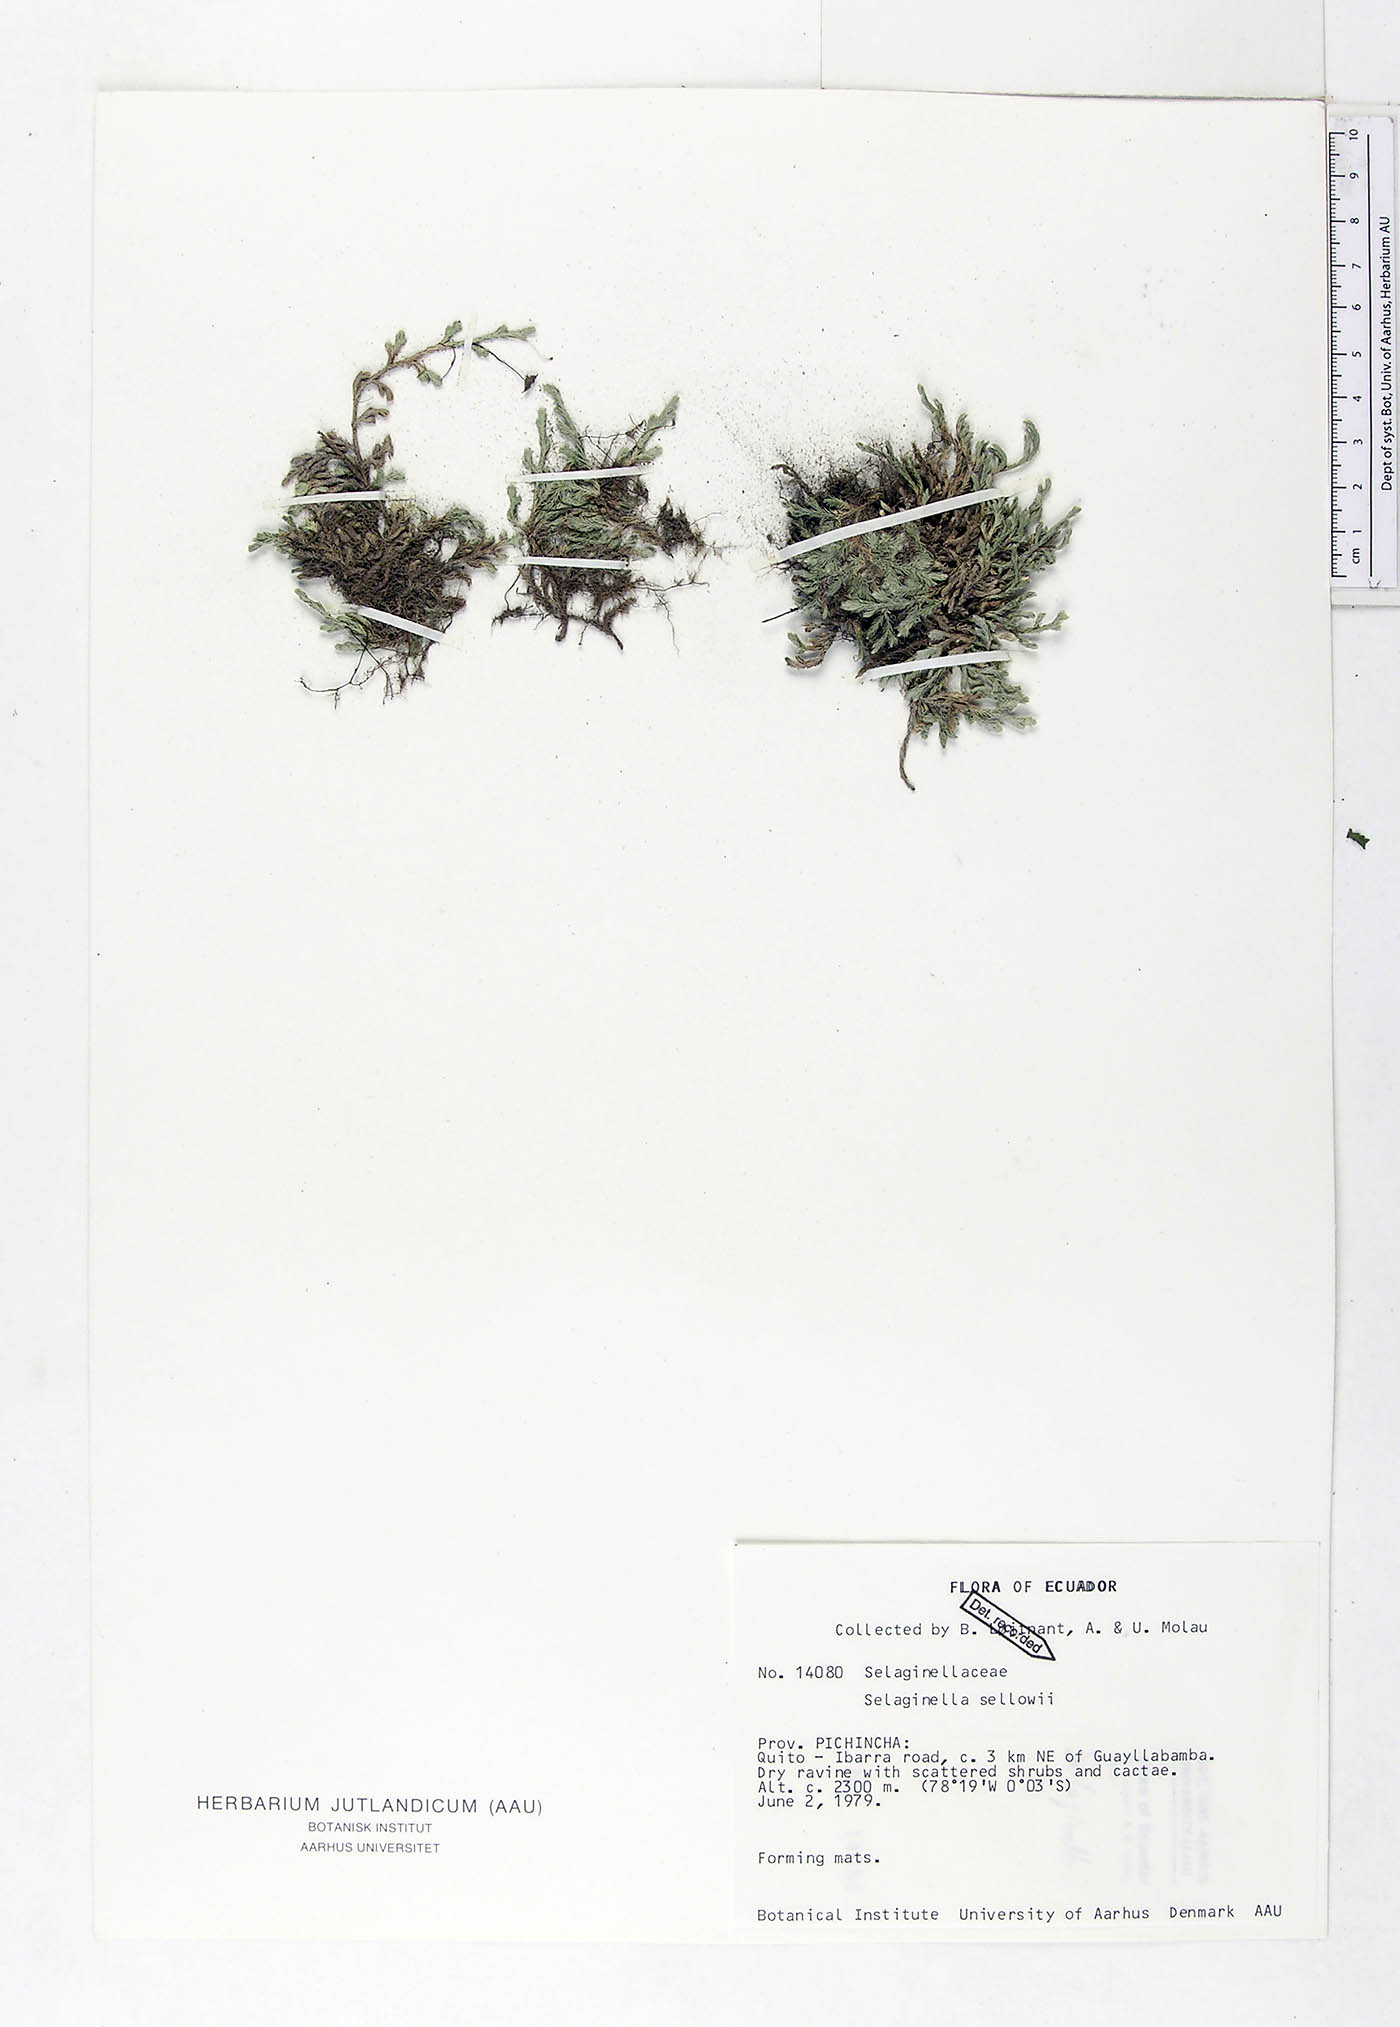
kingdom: Plantae
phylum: Tracheophyta
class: Lycopodiopsida
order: Selaginellales
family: Selaginellaceae
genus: Selaginella
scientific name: Selaginella sellowii
